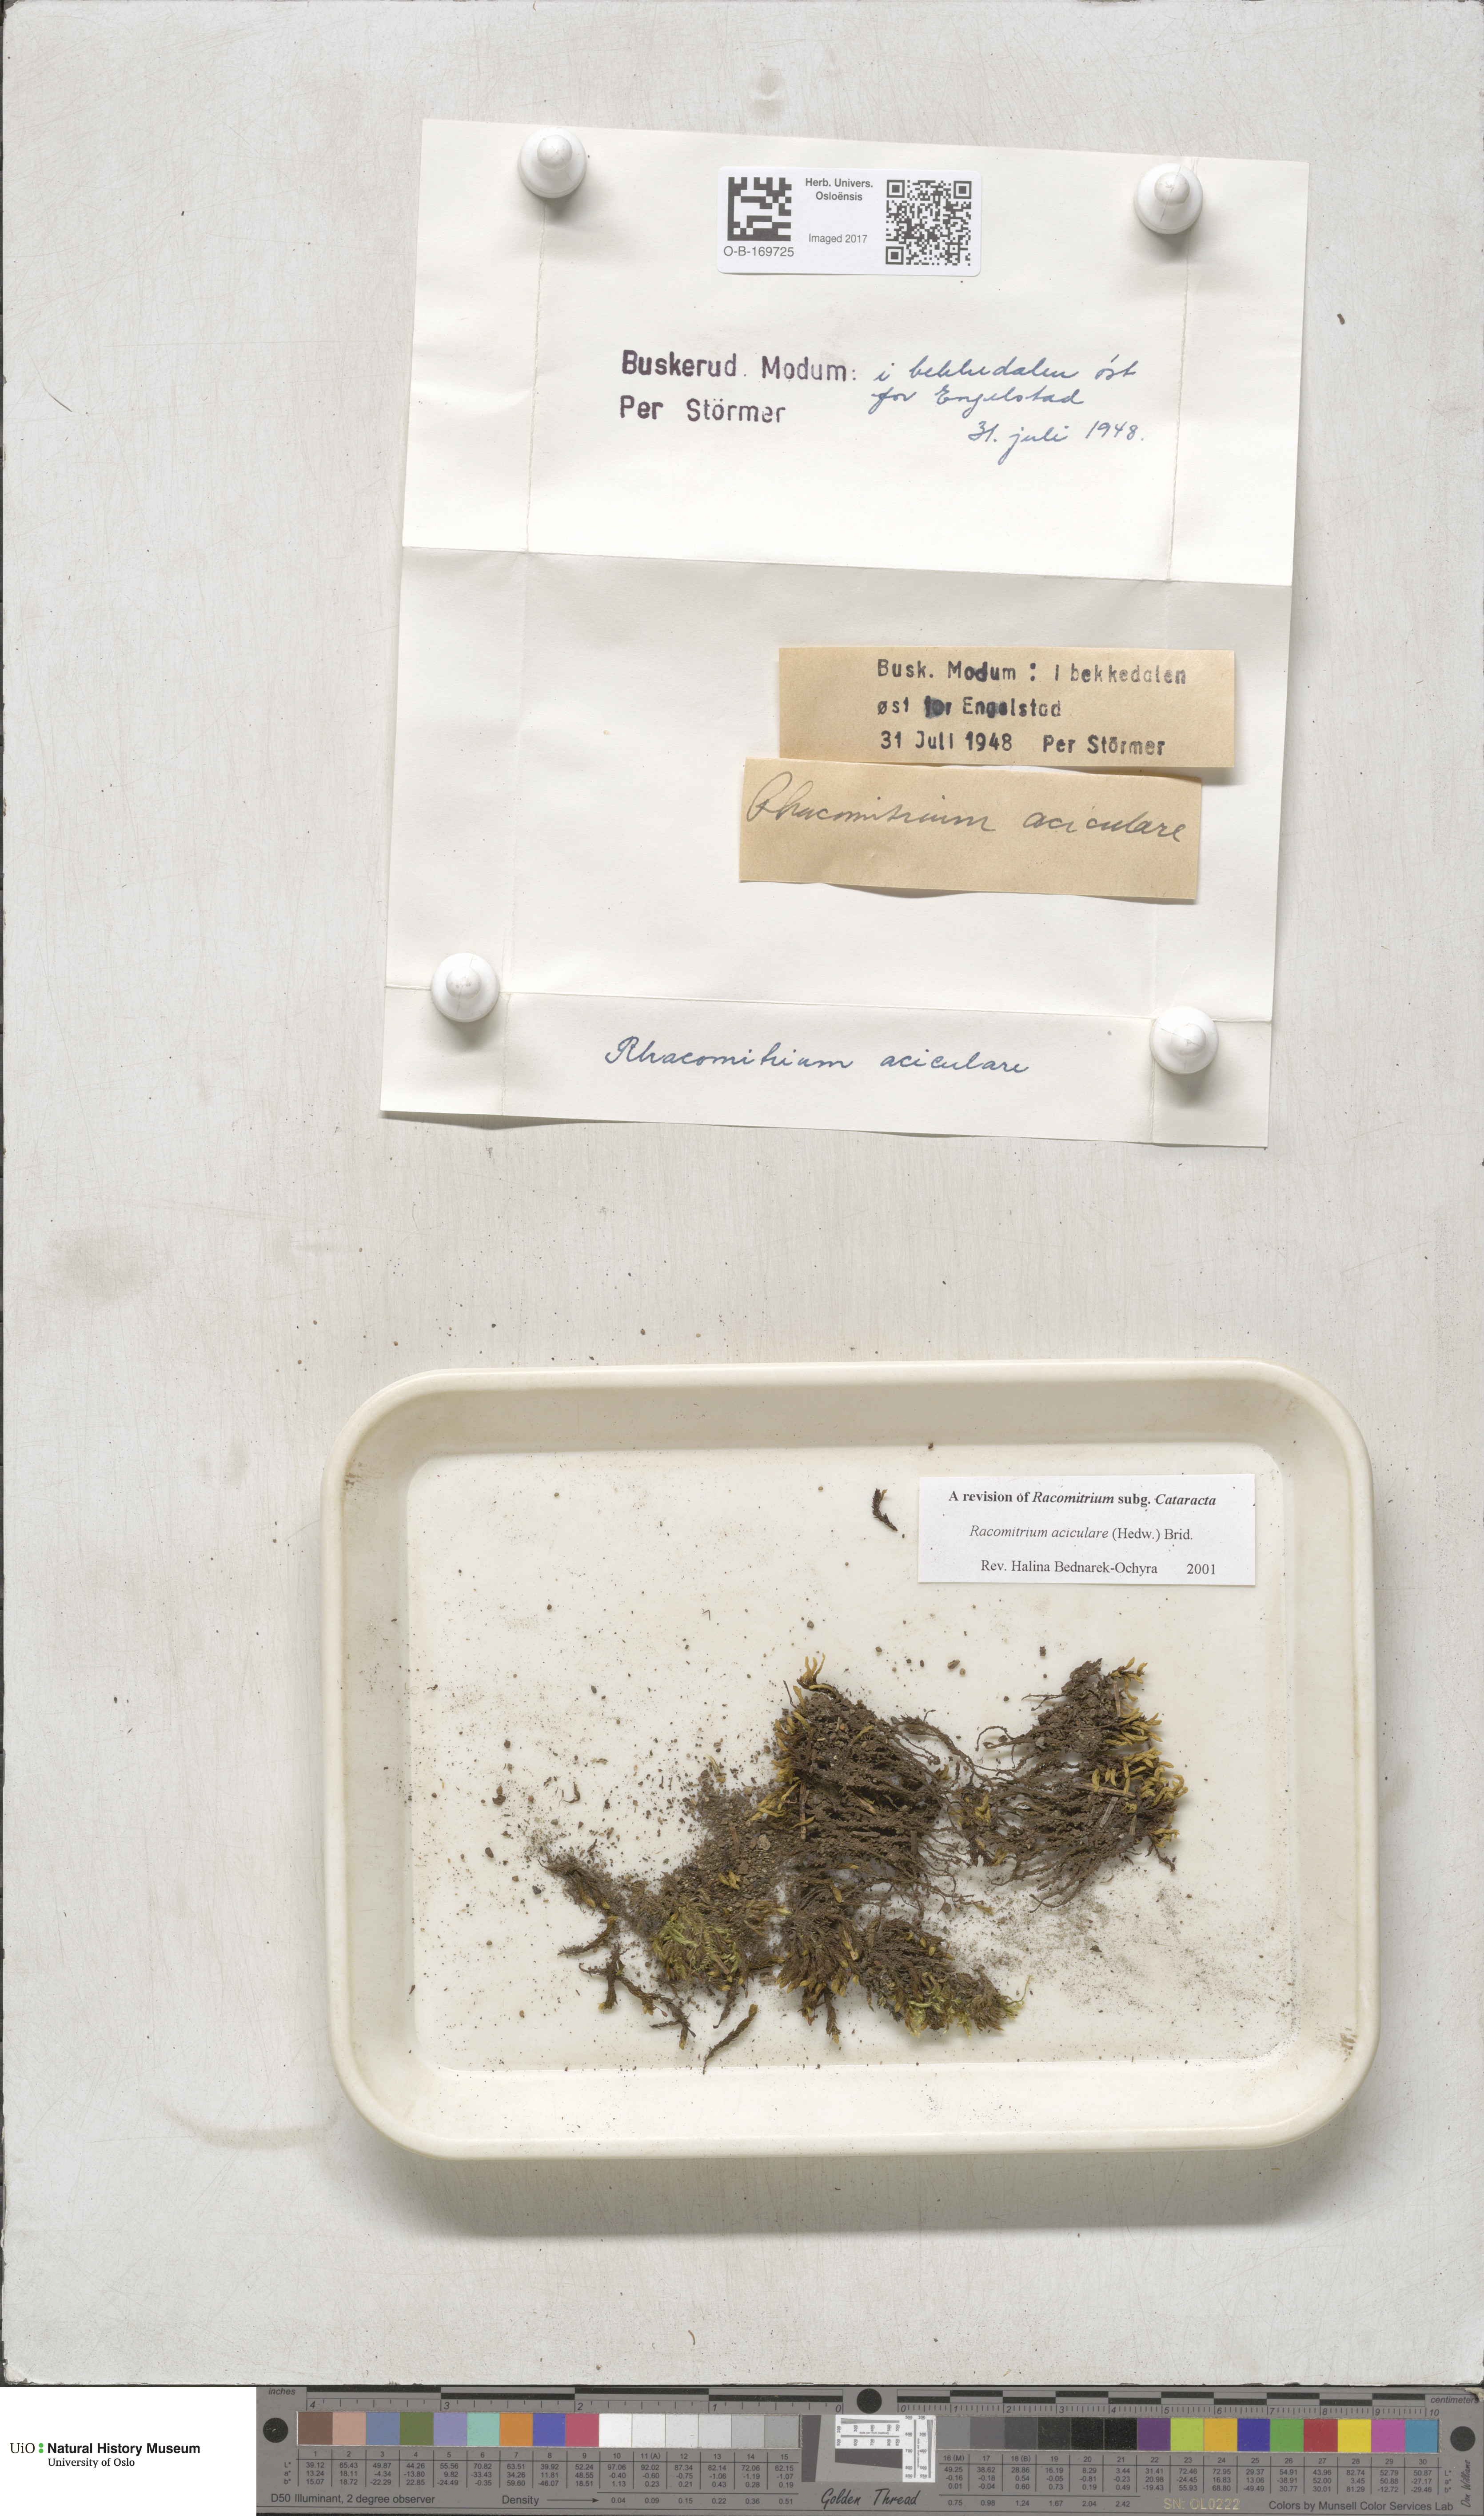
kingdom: Plantae
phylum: Bryophyta
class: Bryopsida
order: Grimmiales
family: Grimmiaceae
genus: Codriophorus
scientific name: Codriophorus acicularis
